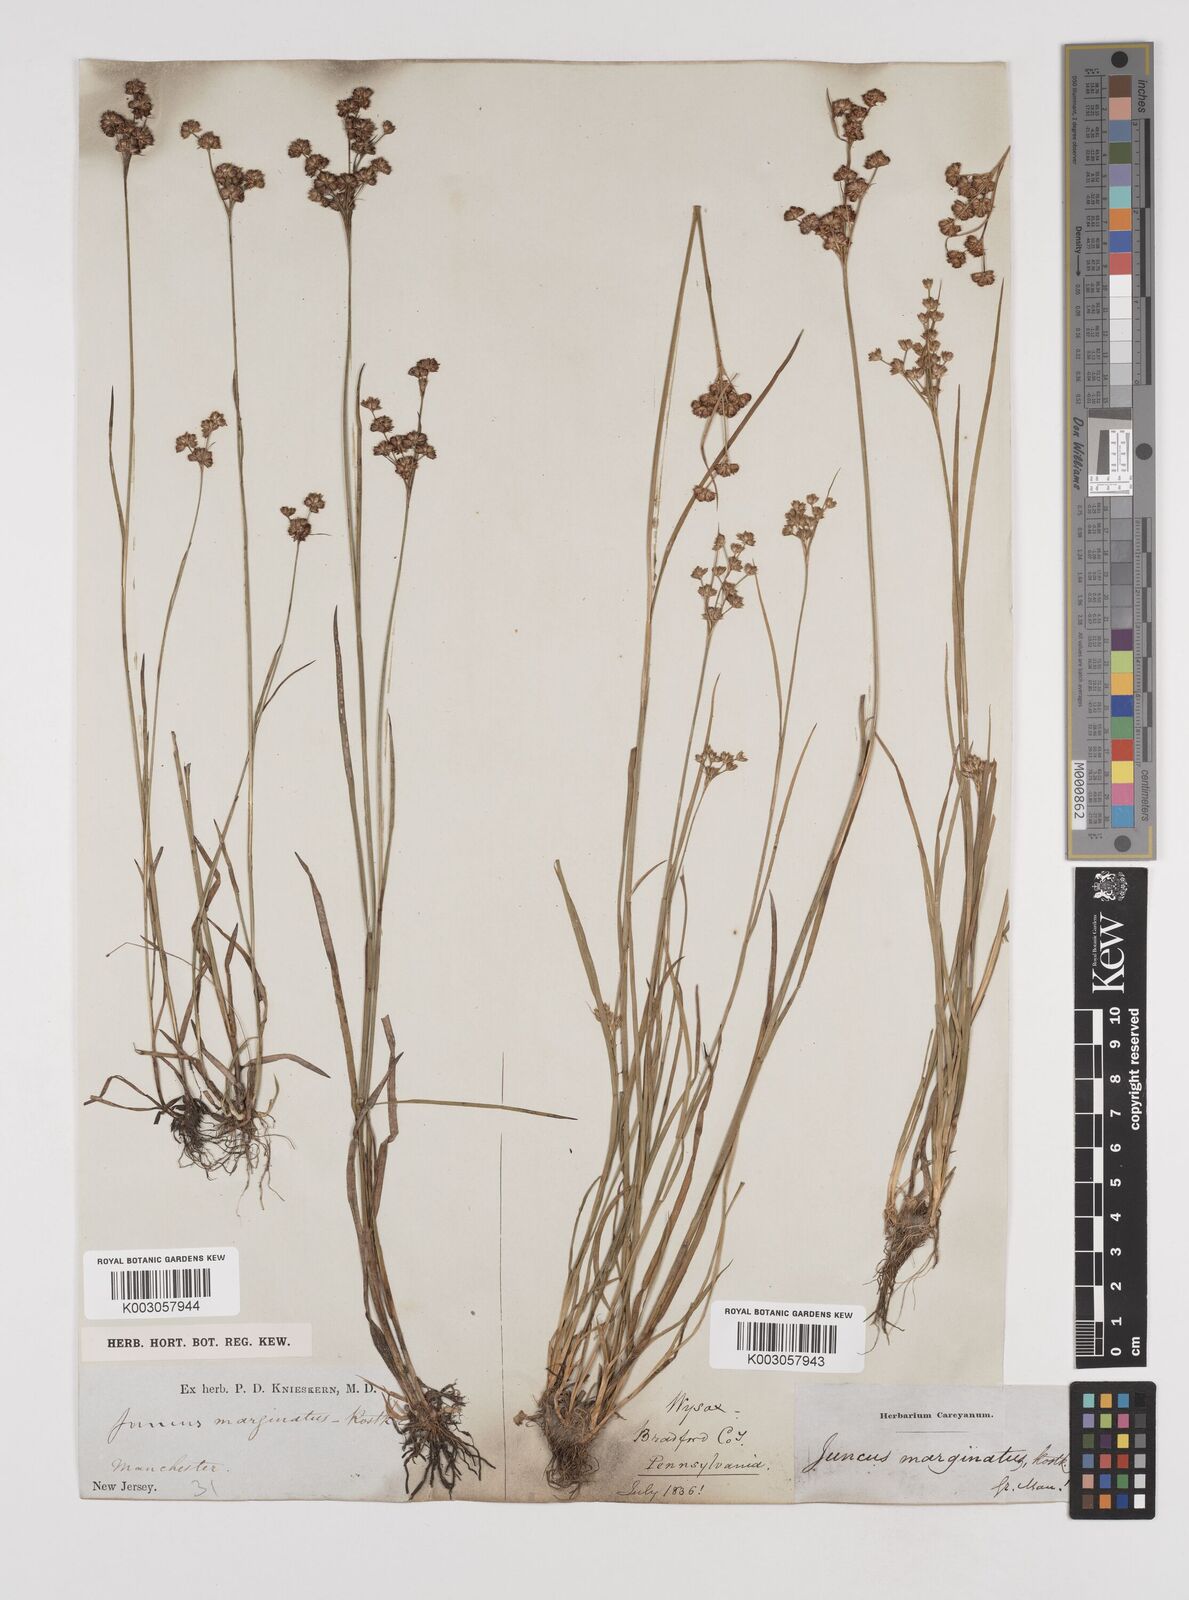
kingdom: Plantae
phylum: Tracheophyta
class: Liliopsida
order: Poales
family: Juncaceae
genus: Juncus
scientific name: Juncus marginatus
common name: Grass-leaf rush
